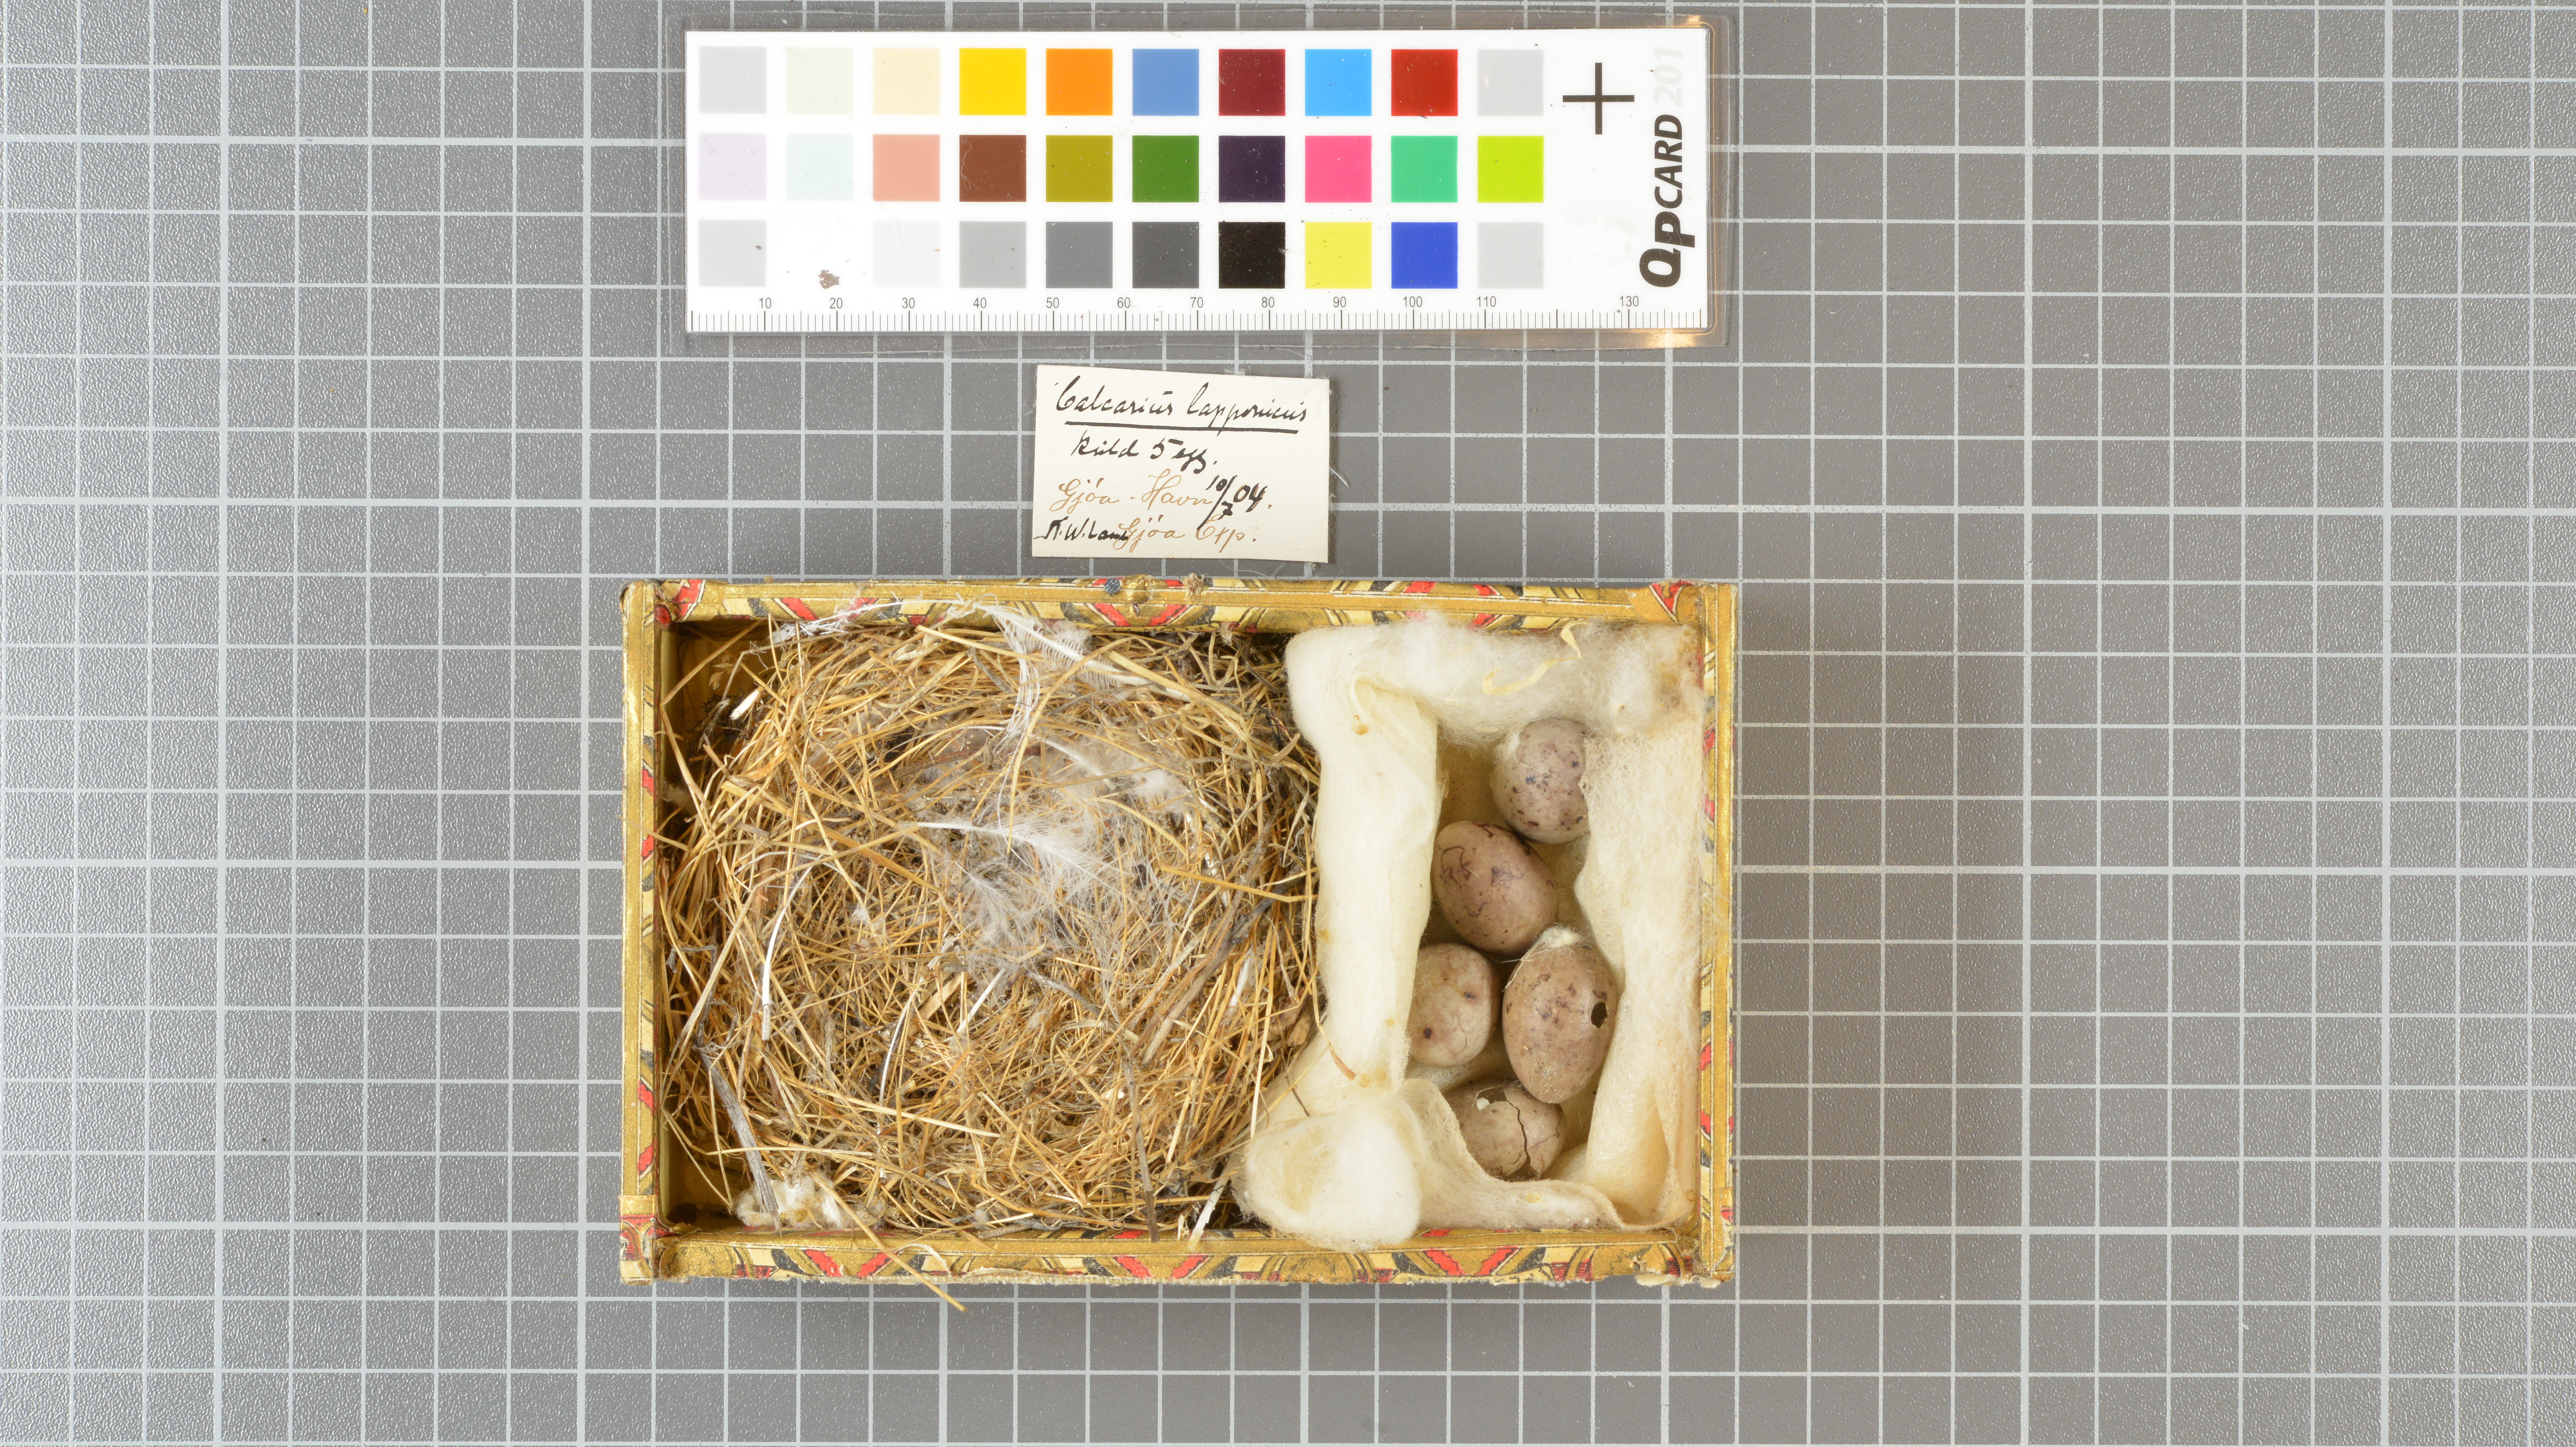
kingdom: Animalia
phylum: Chordata
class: Aves
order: Passeriformes
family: Calcariidae
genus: Calcarius
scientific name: Calcarius lapponicus
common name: Lapland longspur
